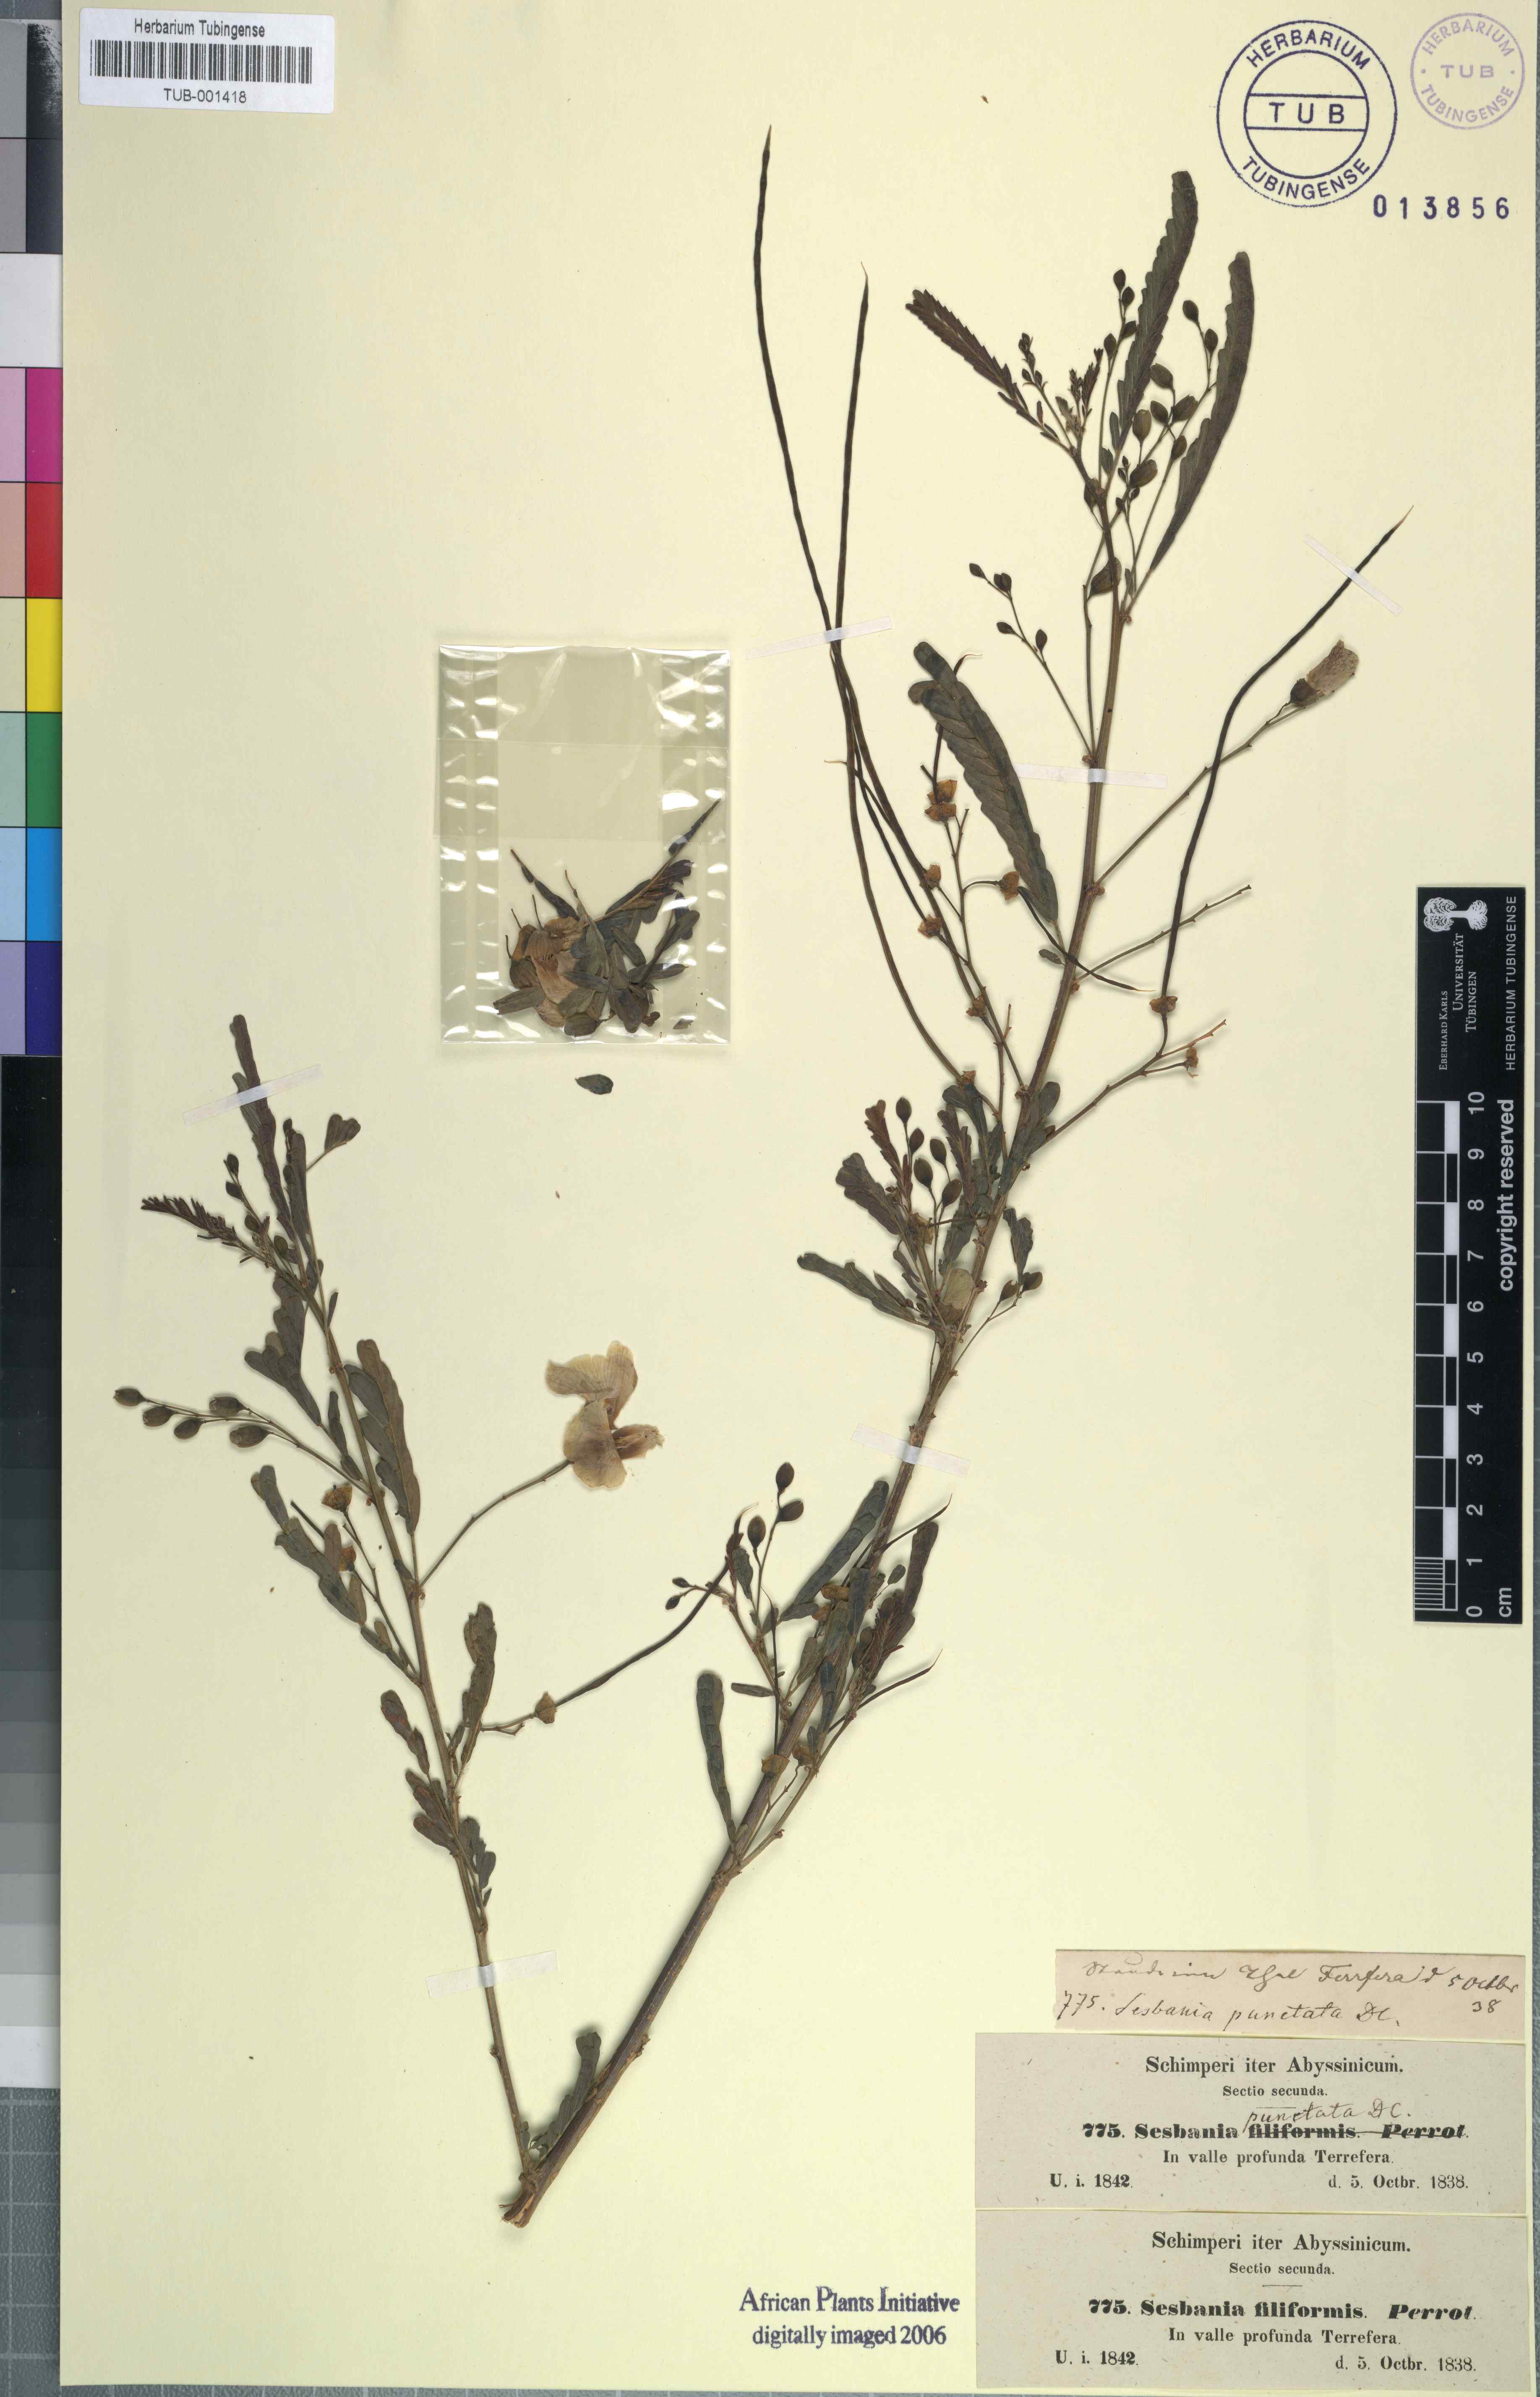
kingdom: Plantae
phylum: Tracheophyta
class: Magnoliopsida
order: Fabales
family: Fabaceae
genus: Sesbania
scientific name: Sesbania sesban
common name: Egyptian sesban
